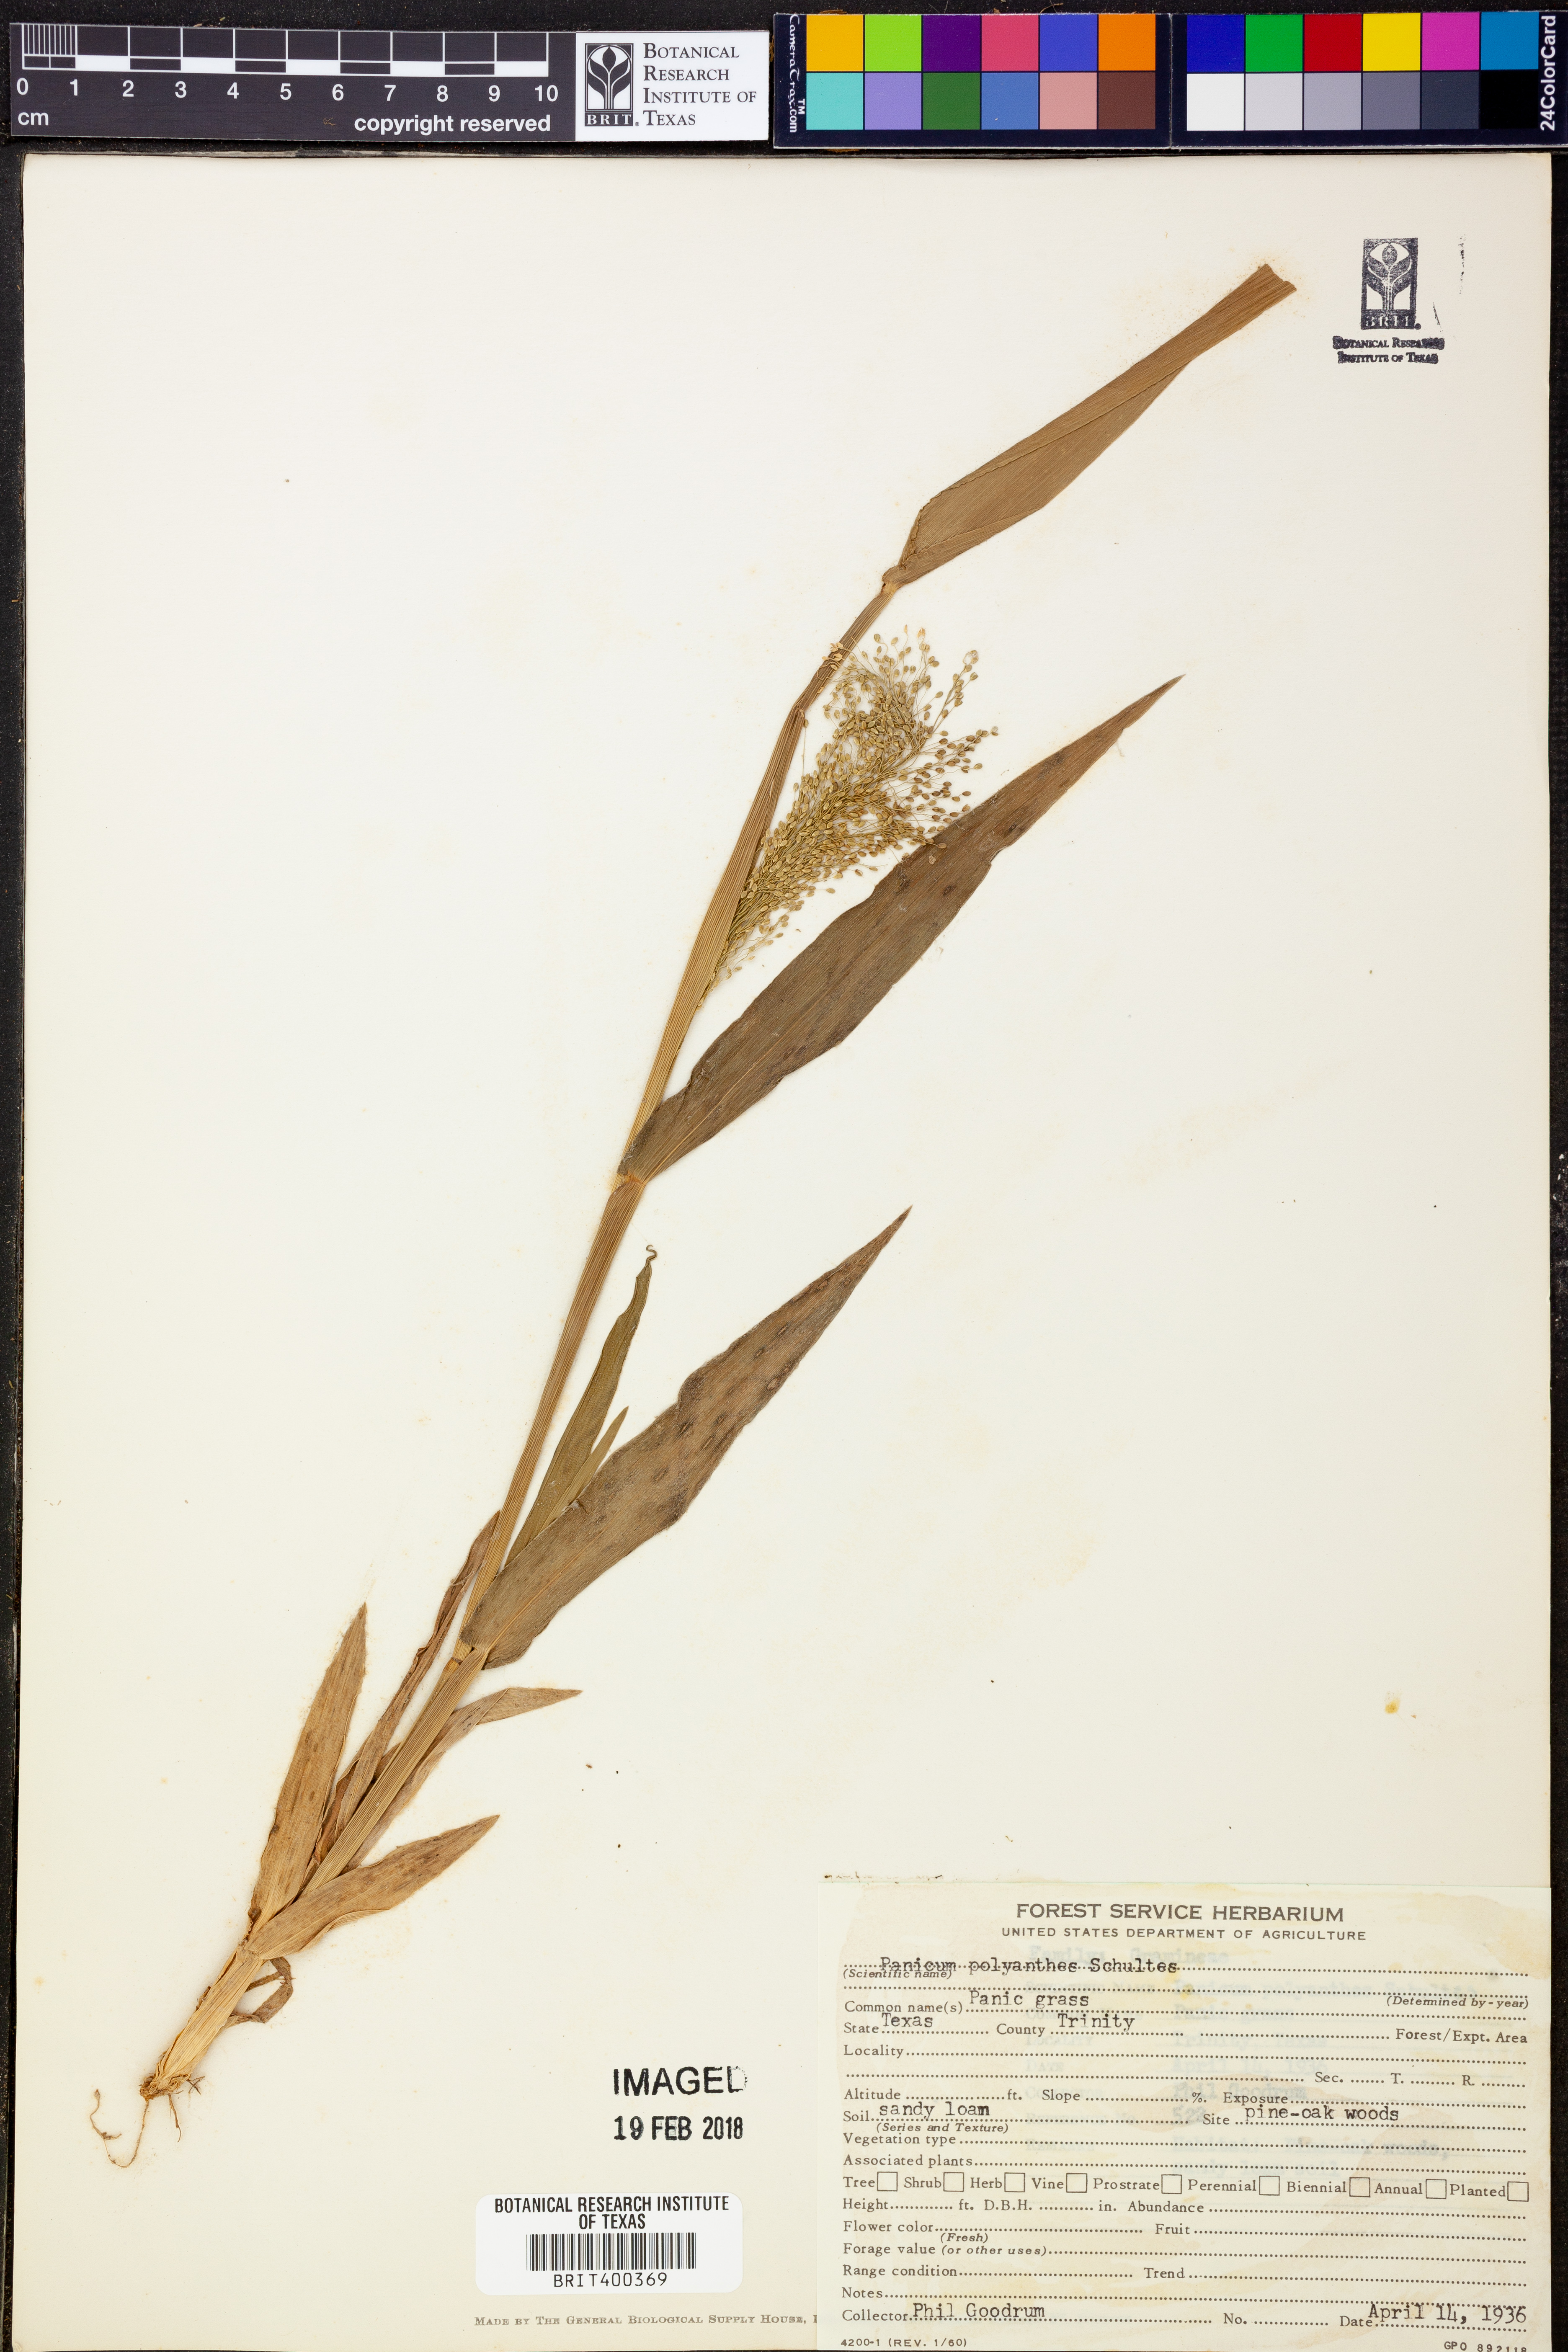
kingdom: Plantae
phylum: Tracheophyta
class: Liliopsida
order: Poales
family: Poaceae
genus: Dichanthelium
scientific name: Dichanthelium polyanthes
